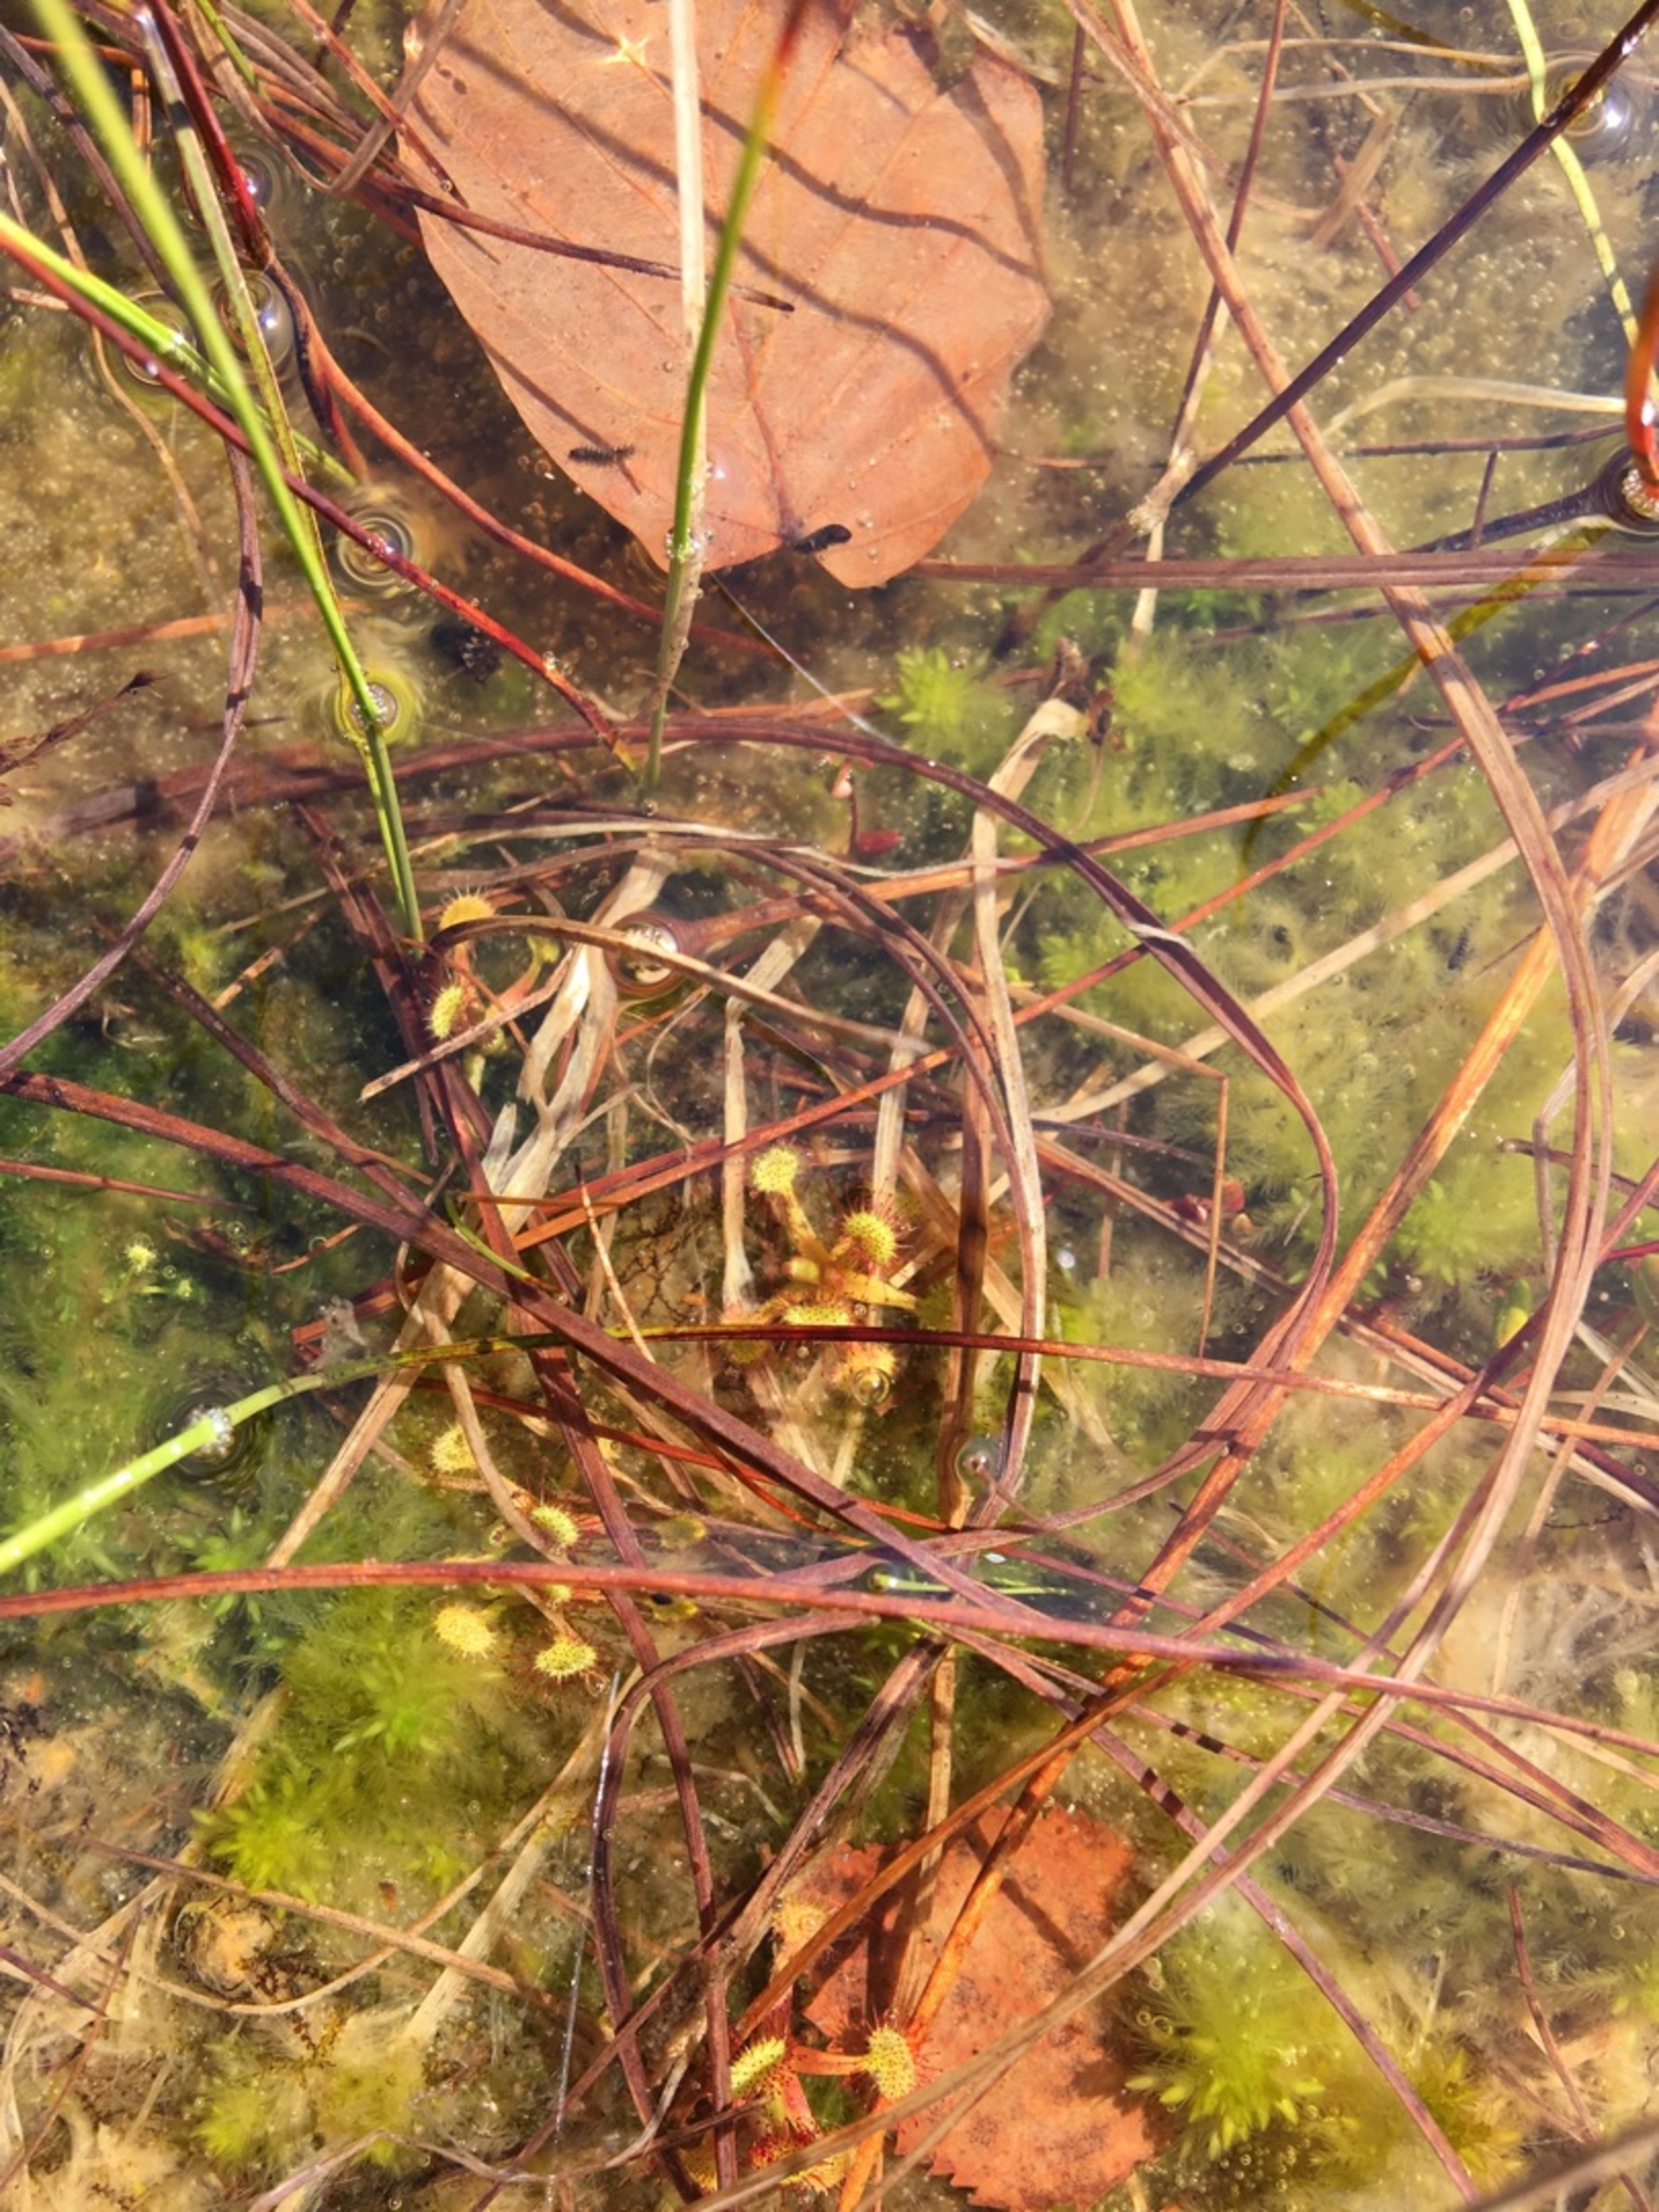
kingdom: Plantae
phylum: Tracheophyta
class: Magnoliopsida
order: Caryophyllales
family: Droseraceae
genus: Drosera
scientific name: Drosera rotundifolia
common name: Rundbladet soldug
